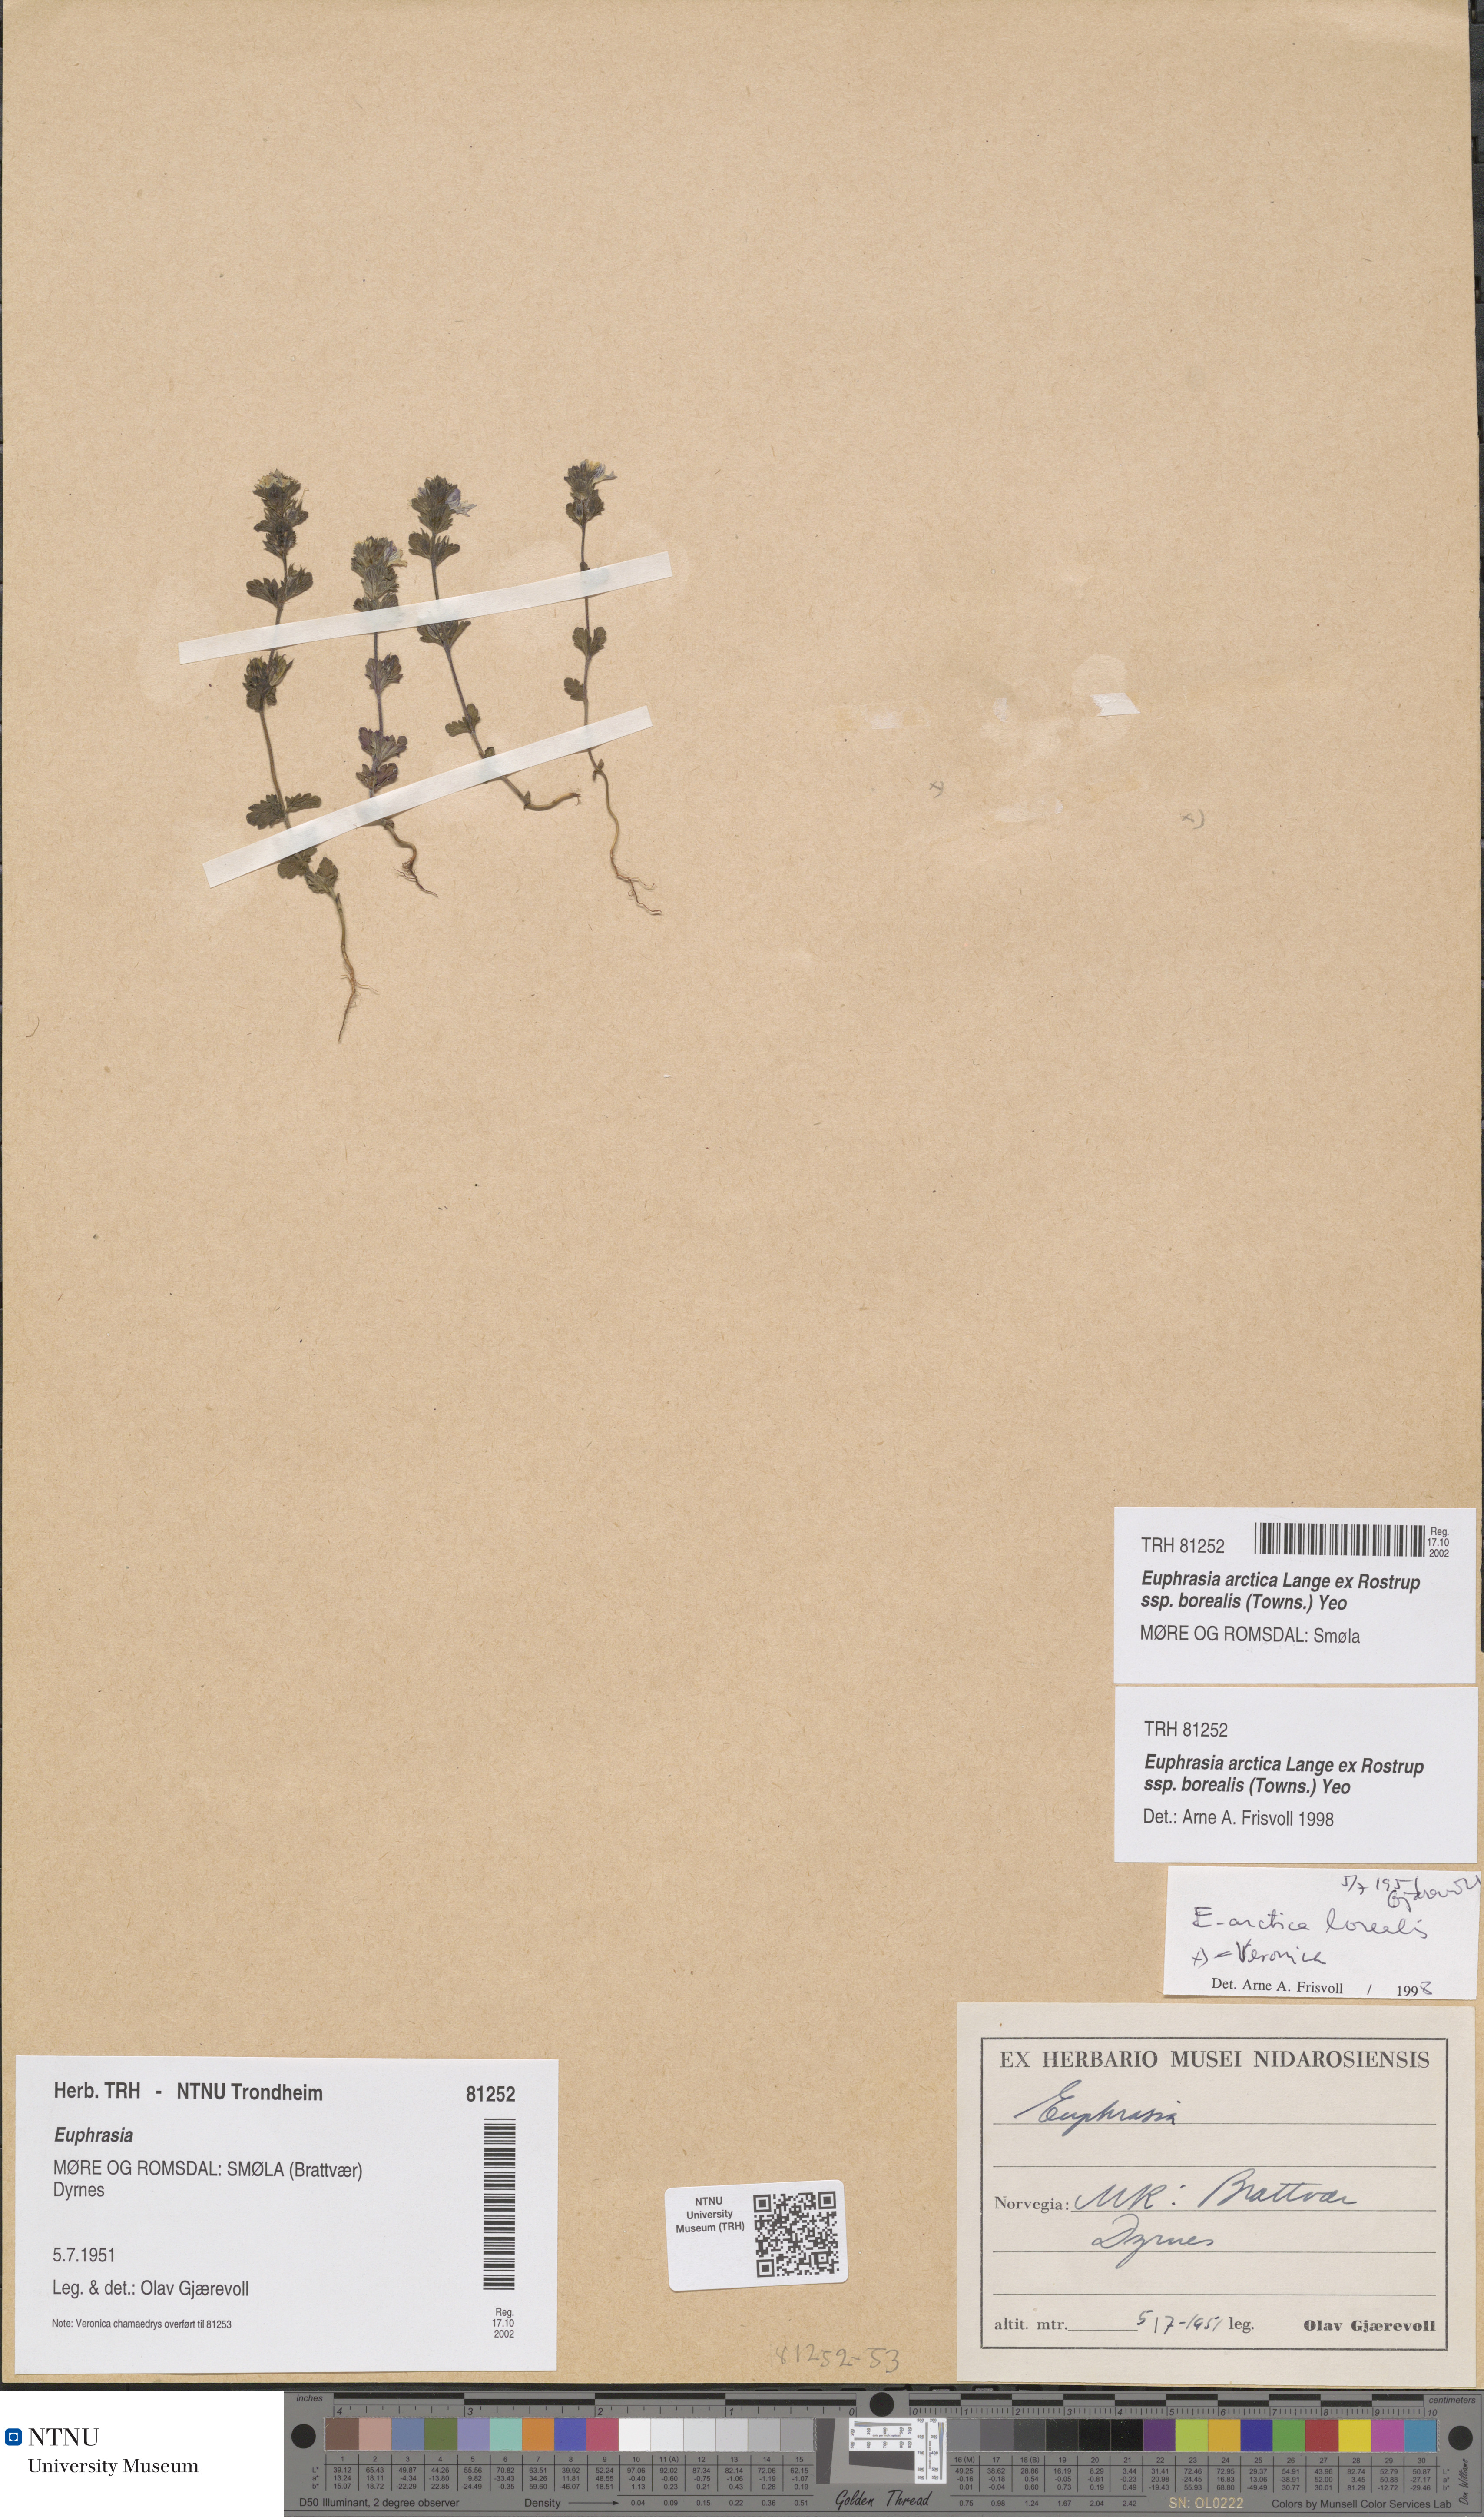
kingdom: Plantae
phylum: Tracheophyta
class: Magnoliopsida
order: Lamiales
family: Orobanchaceae
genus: Euphrasia
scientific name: Euphrasia arctica
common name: An eyebright
